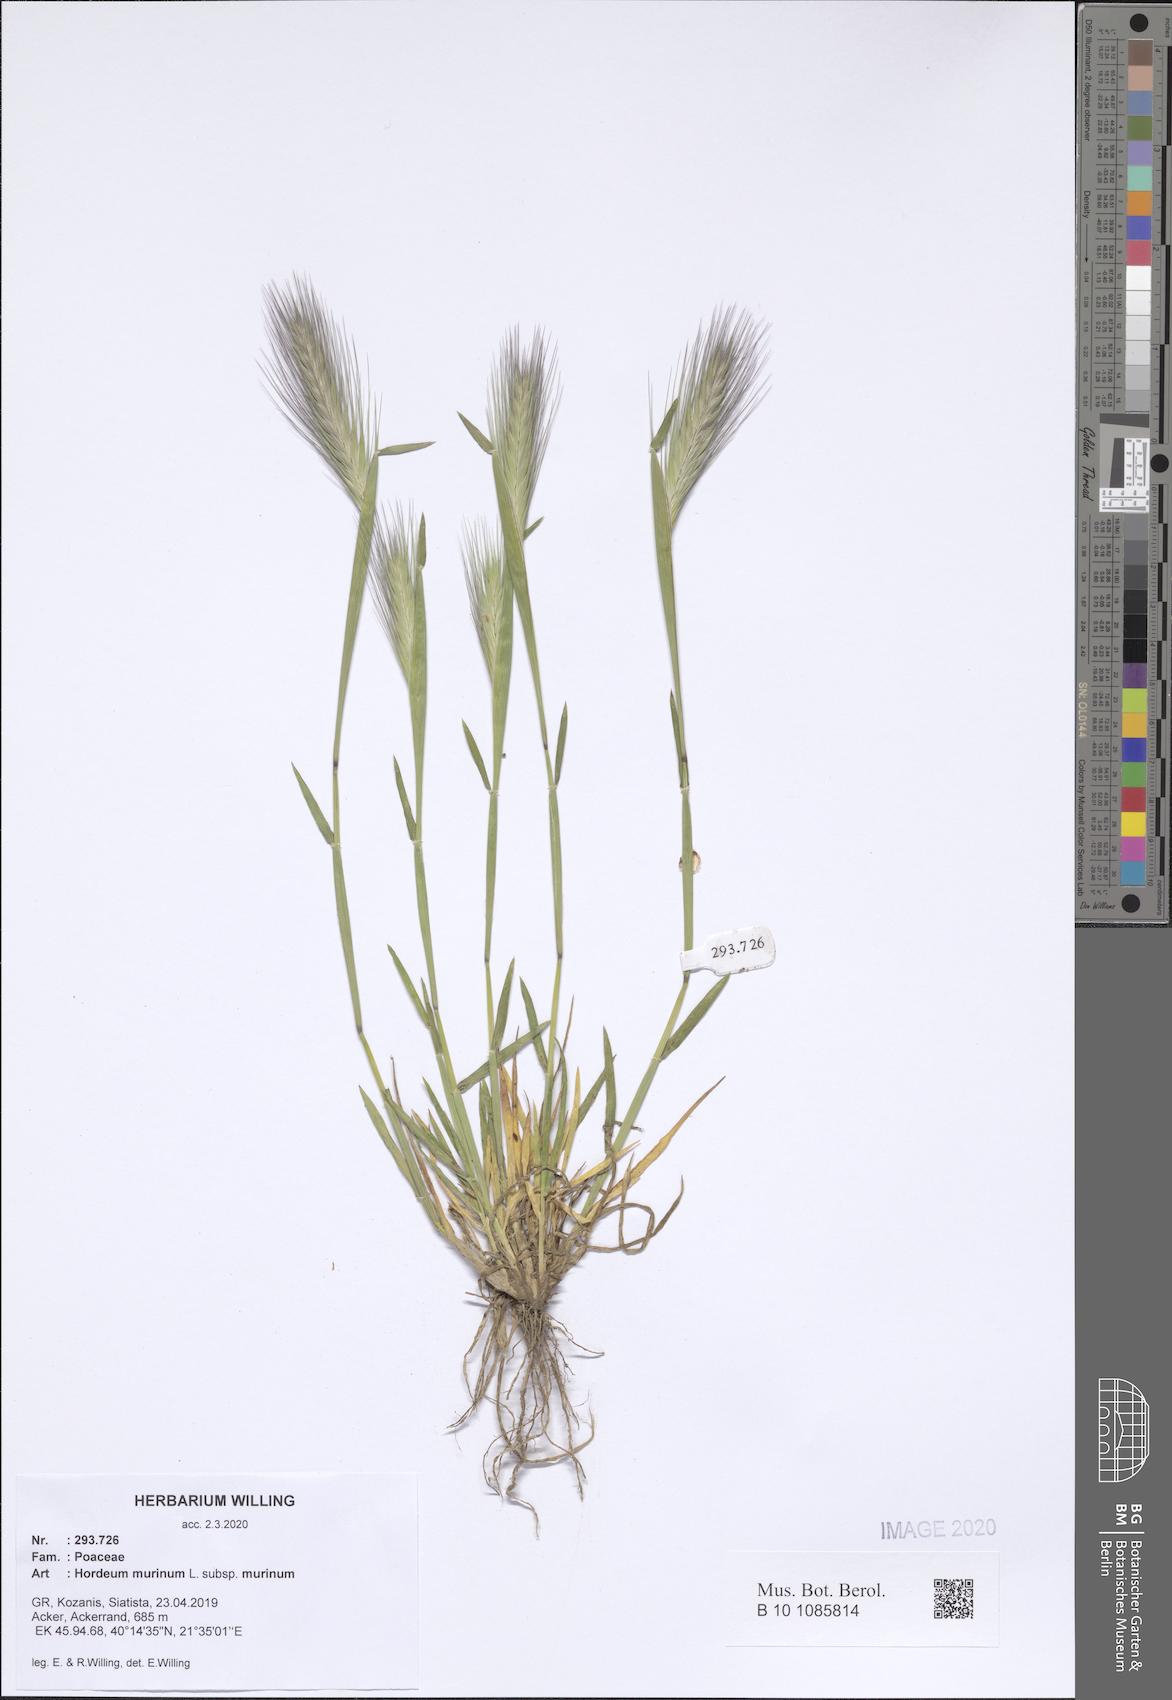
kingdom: Plantae
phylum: Tracheophyta
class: Liliopsida
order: Poales
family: Poaceae
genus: Hordeum
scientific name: Hordeum murinum
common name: Wall barley
